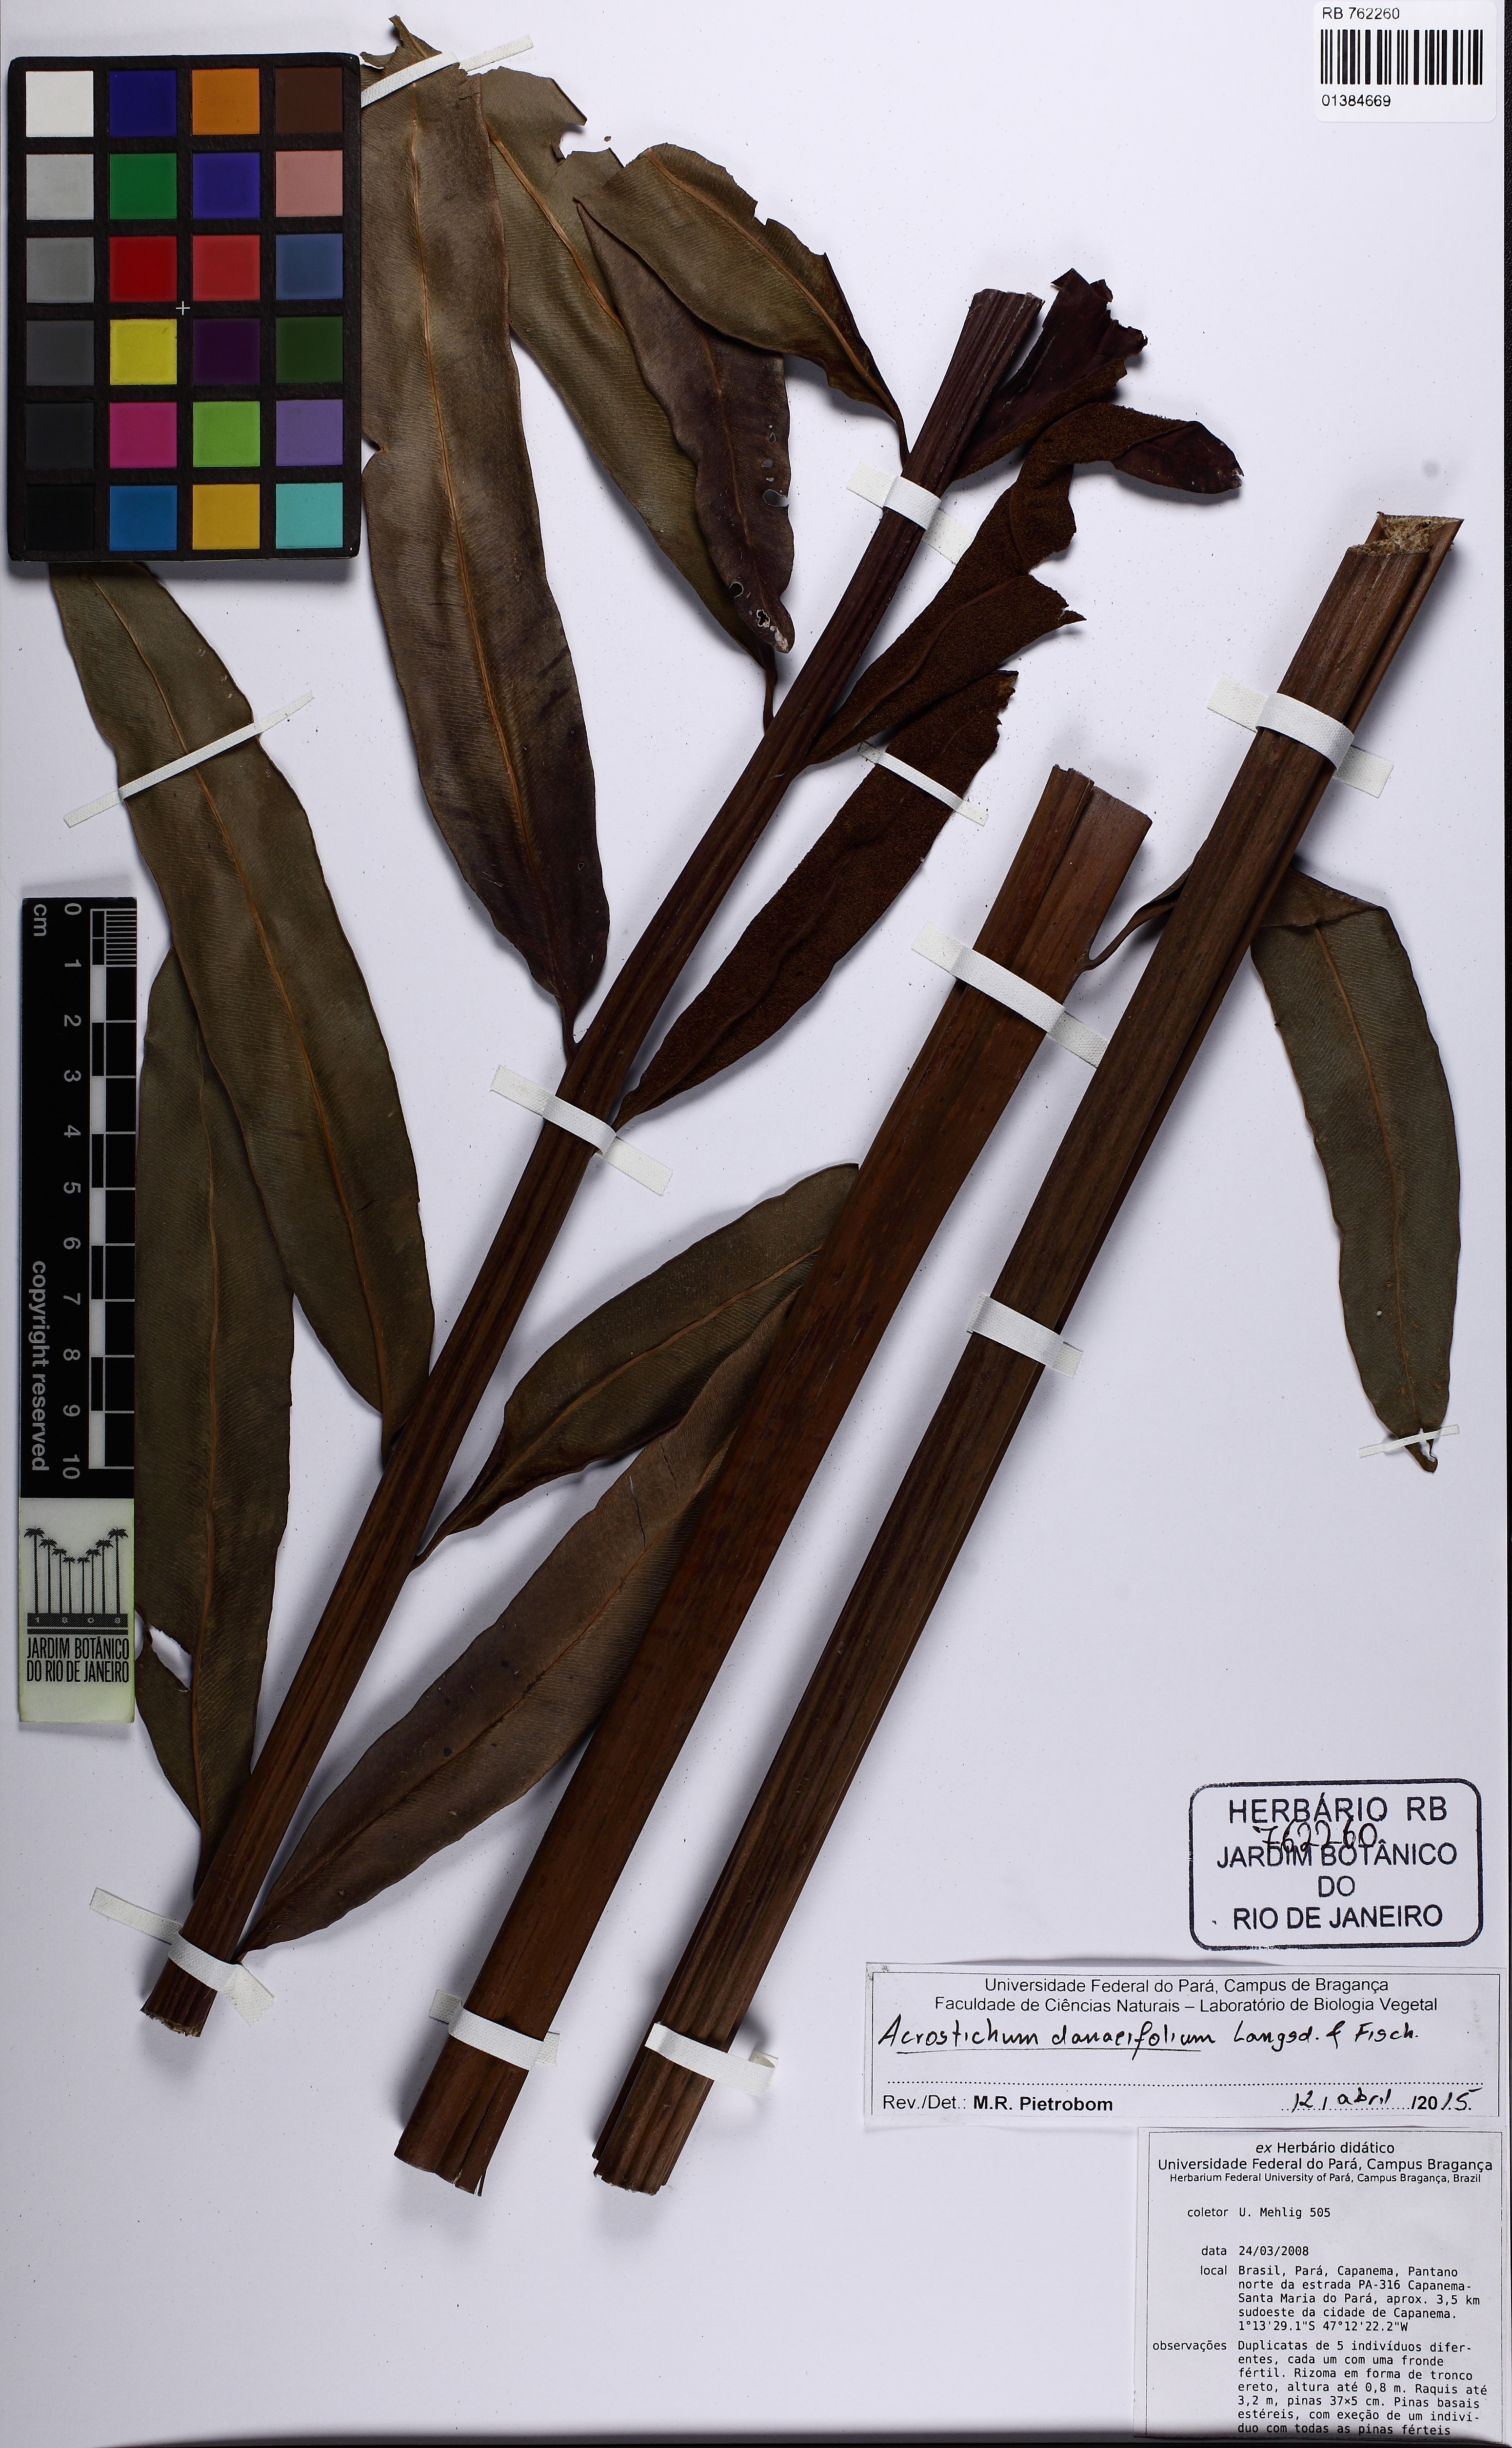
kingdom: Plantae
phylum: Tracheophyta
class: Polypodiopsida
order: Polypodiales
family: Pteridaceae
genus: Acrostichum
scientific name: Acrostichum danaeifolium
